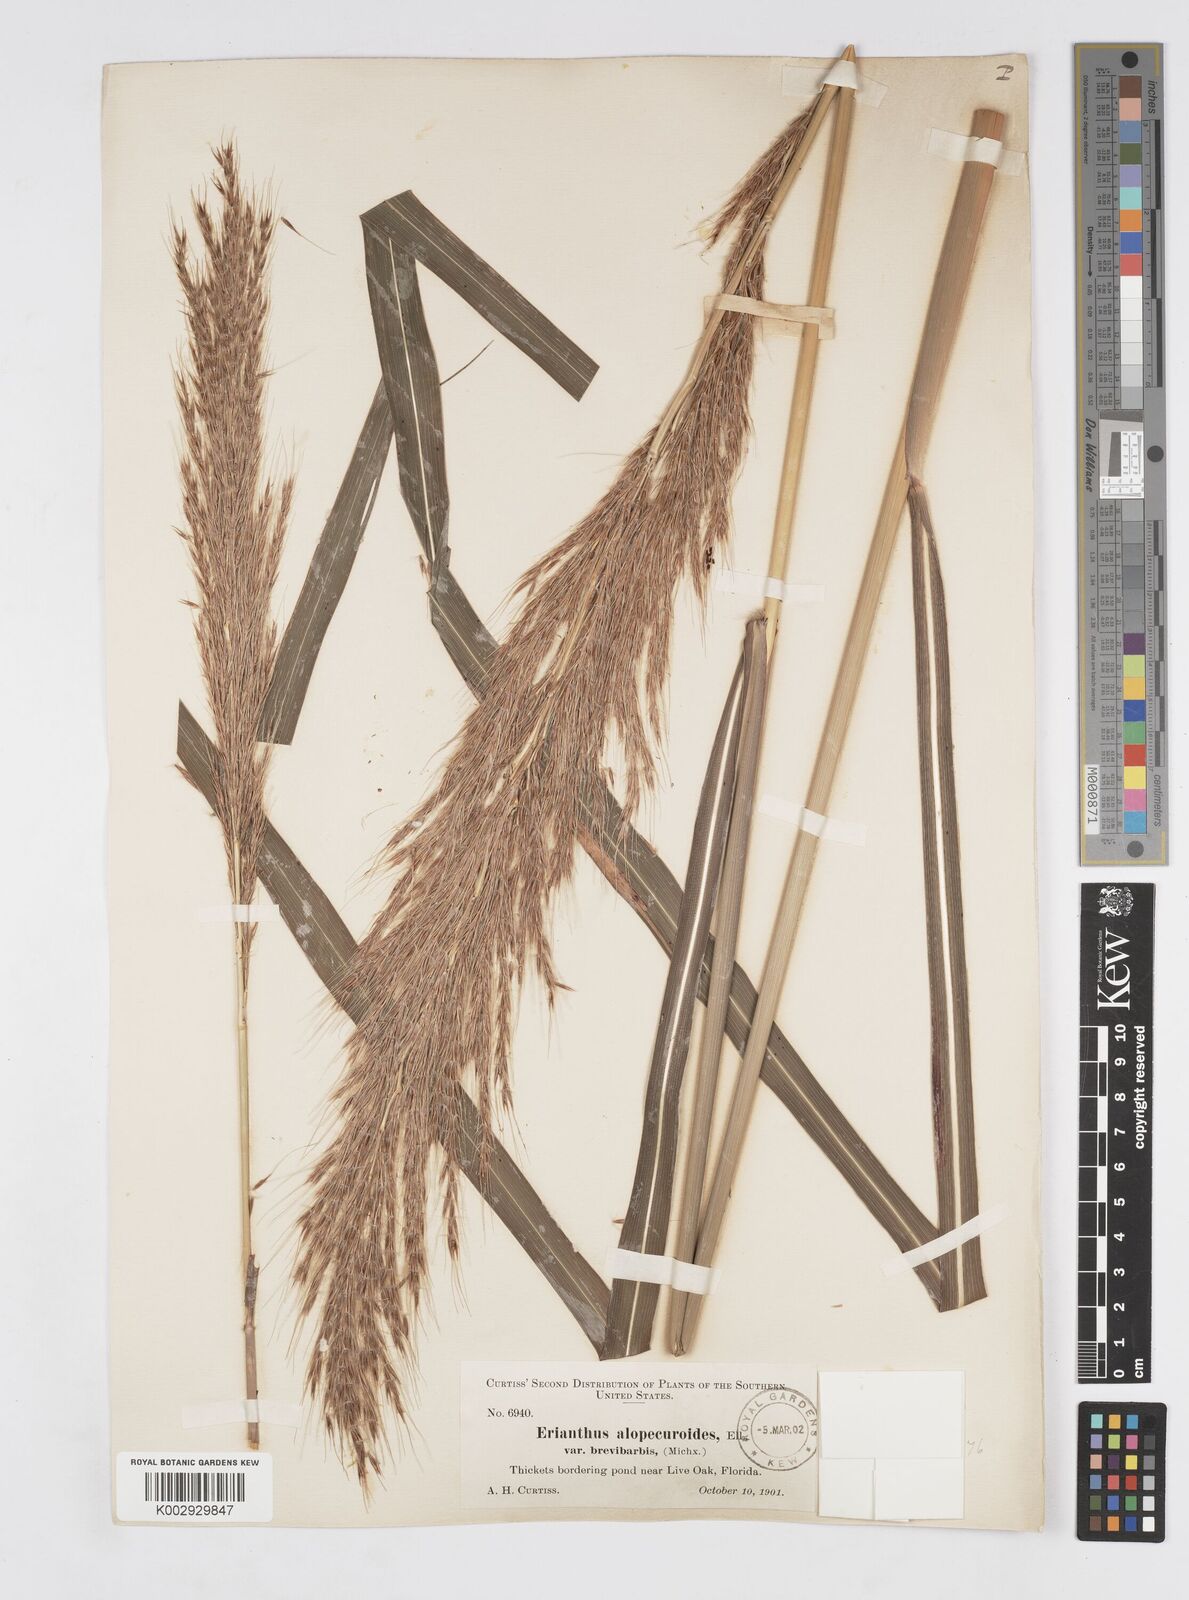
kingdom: Plantae
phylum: Tracheophyta
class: Liliopsida
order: Poales
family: Poaceae
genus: Saccharum
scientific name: Saccharum
